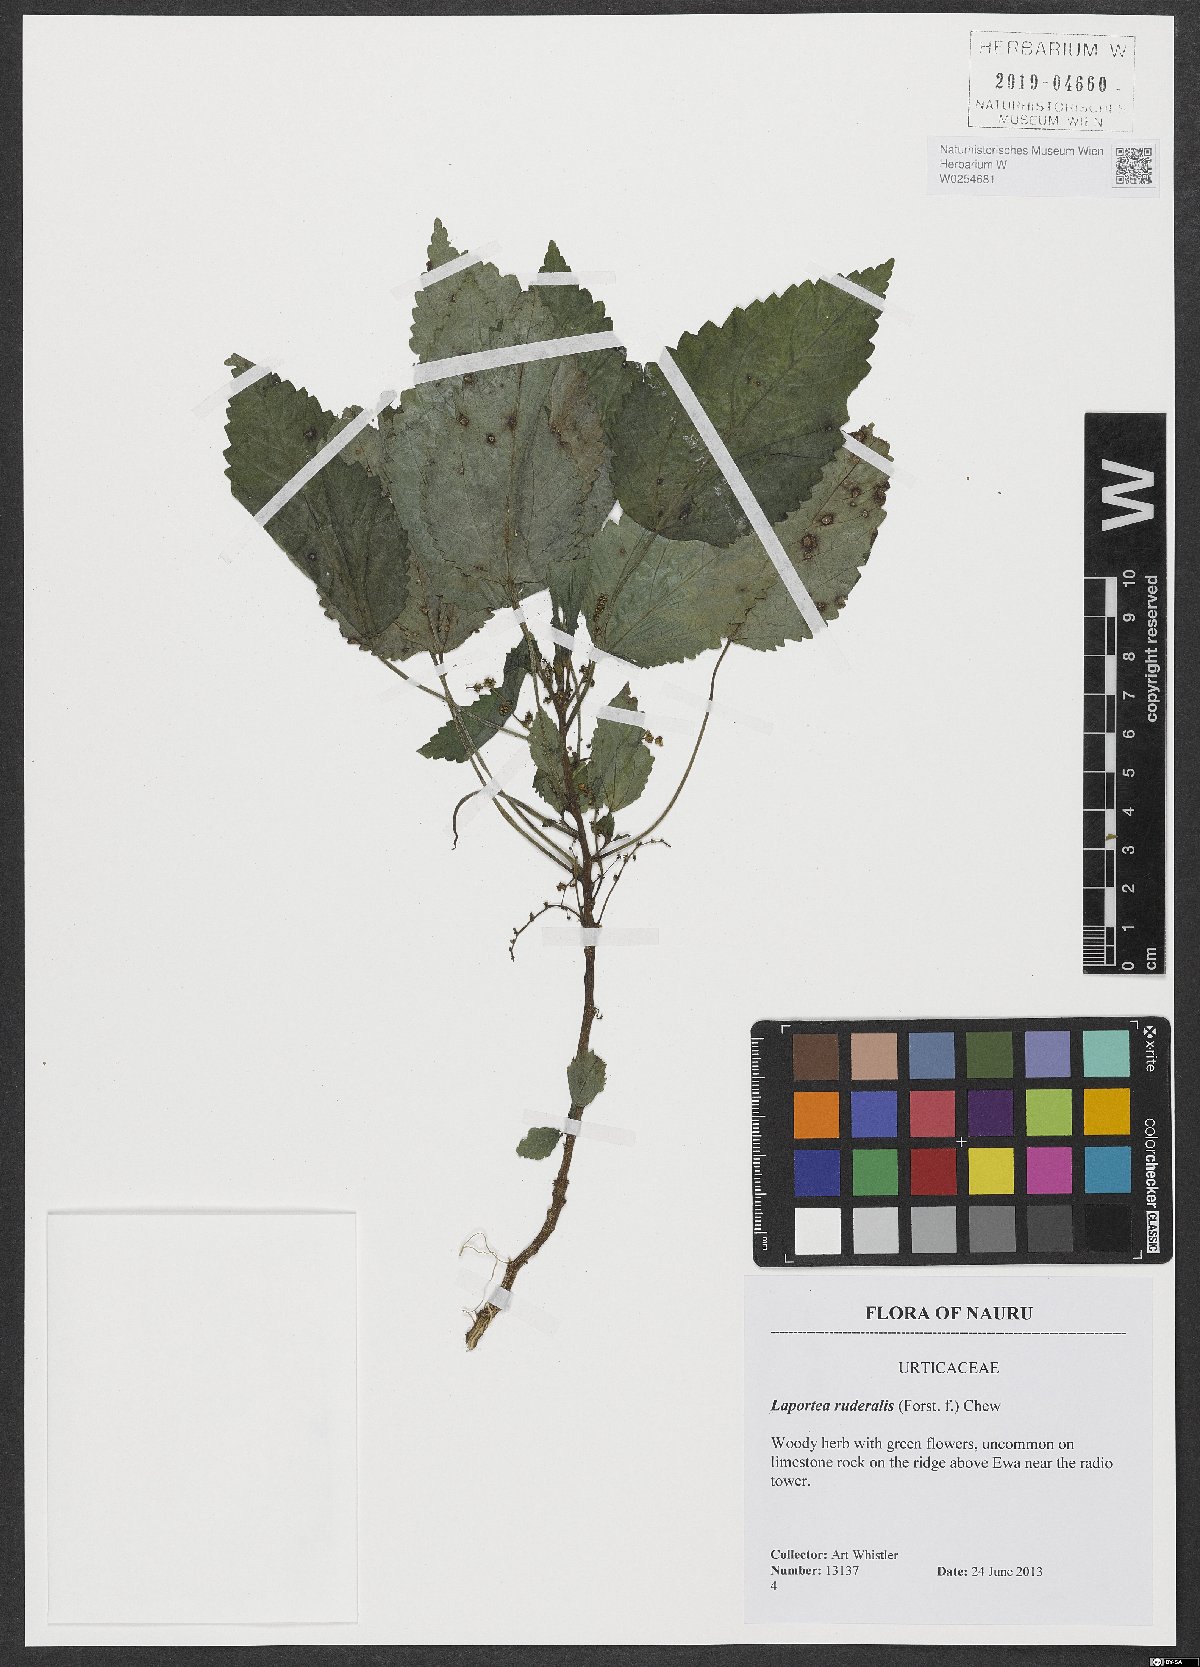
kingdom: Plantae
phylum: Tracheophyta
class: Magnoliopsida
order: Rosales
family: Urticaceae
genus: Laportea
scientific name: Laportea ruderalis
